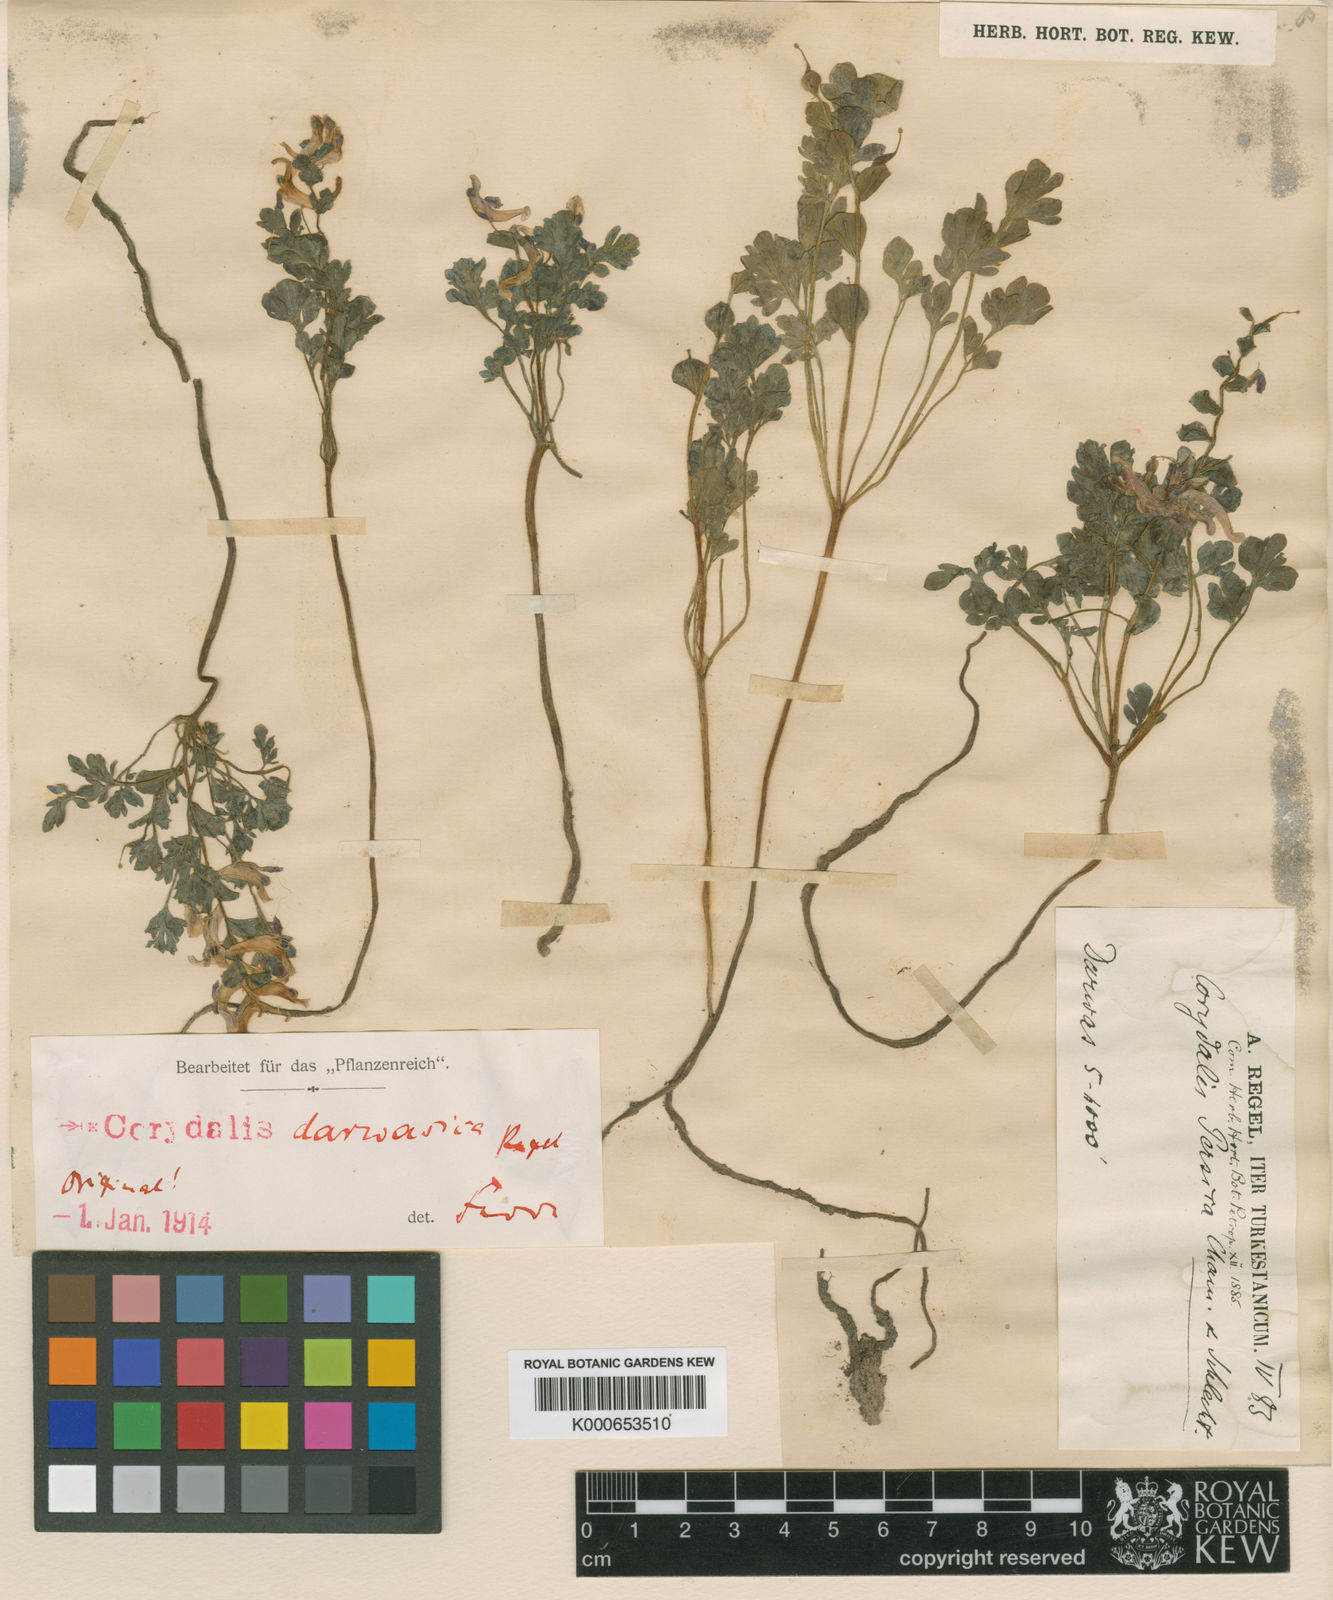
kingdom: Plantae
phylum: Tracheophyta
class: Magnoliopsida
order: Ranunculales
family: Papaveraceae
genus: Corydalis
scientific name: Corydalis
